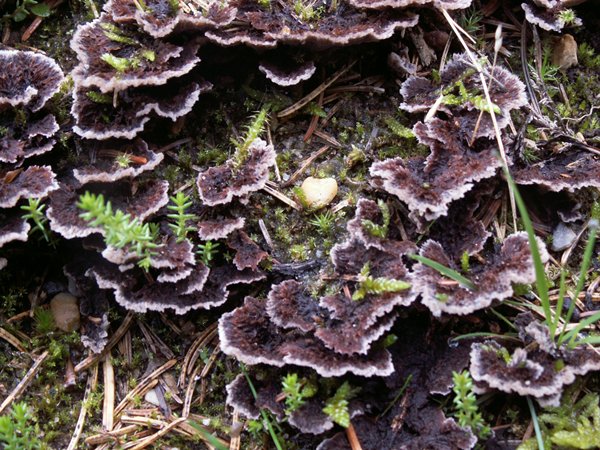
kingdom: Fungi
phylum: Basidiomycota
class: Agaricomycetes
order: Thelephorales
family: Thelephoraceae
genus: Thelephora
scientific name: Thelephora terrestris
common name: fliget frynsesvamp
